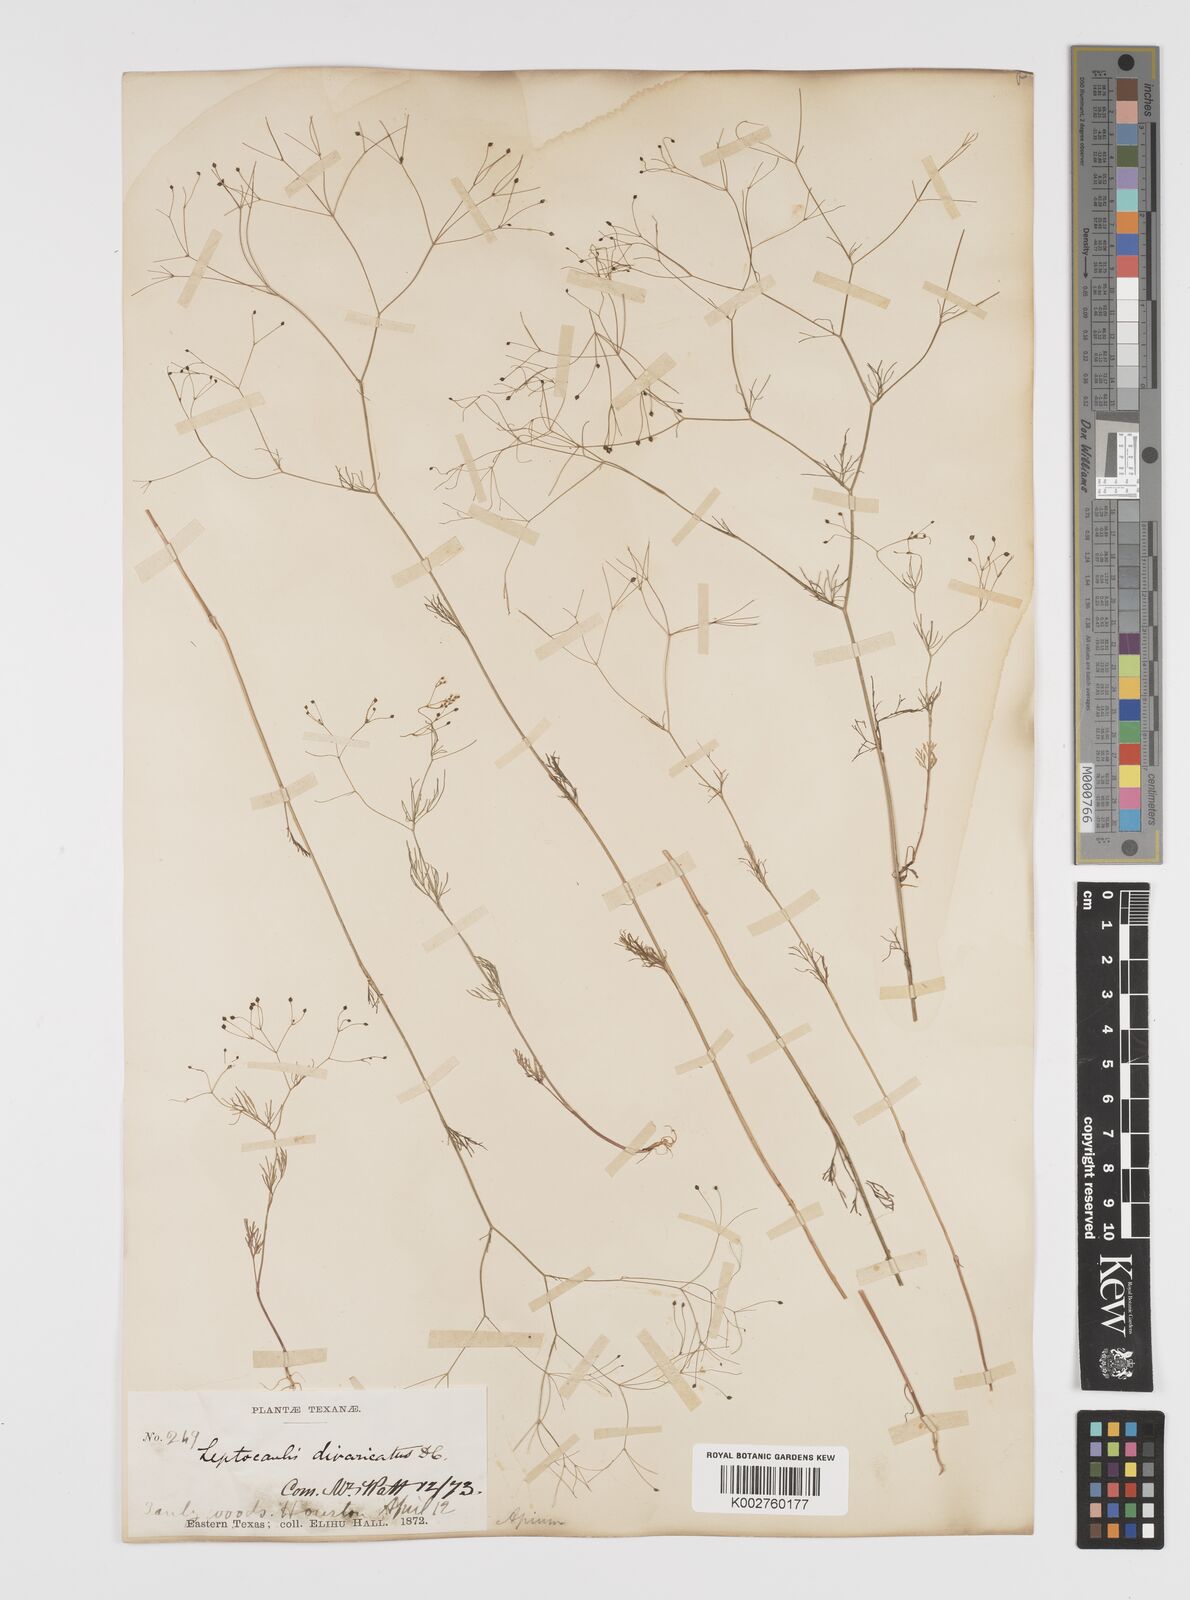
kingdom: Plantae
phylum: Tracheophyta
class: Magnoliopsida
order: Apiales
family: Apiaceae
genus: Spermolepis
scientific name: Spermolepis divaricata
